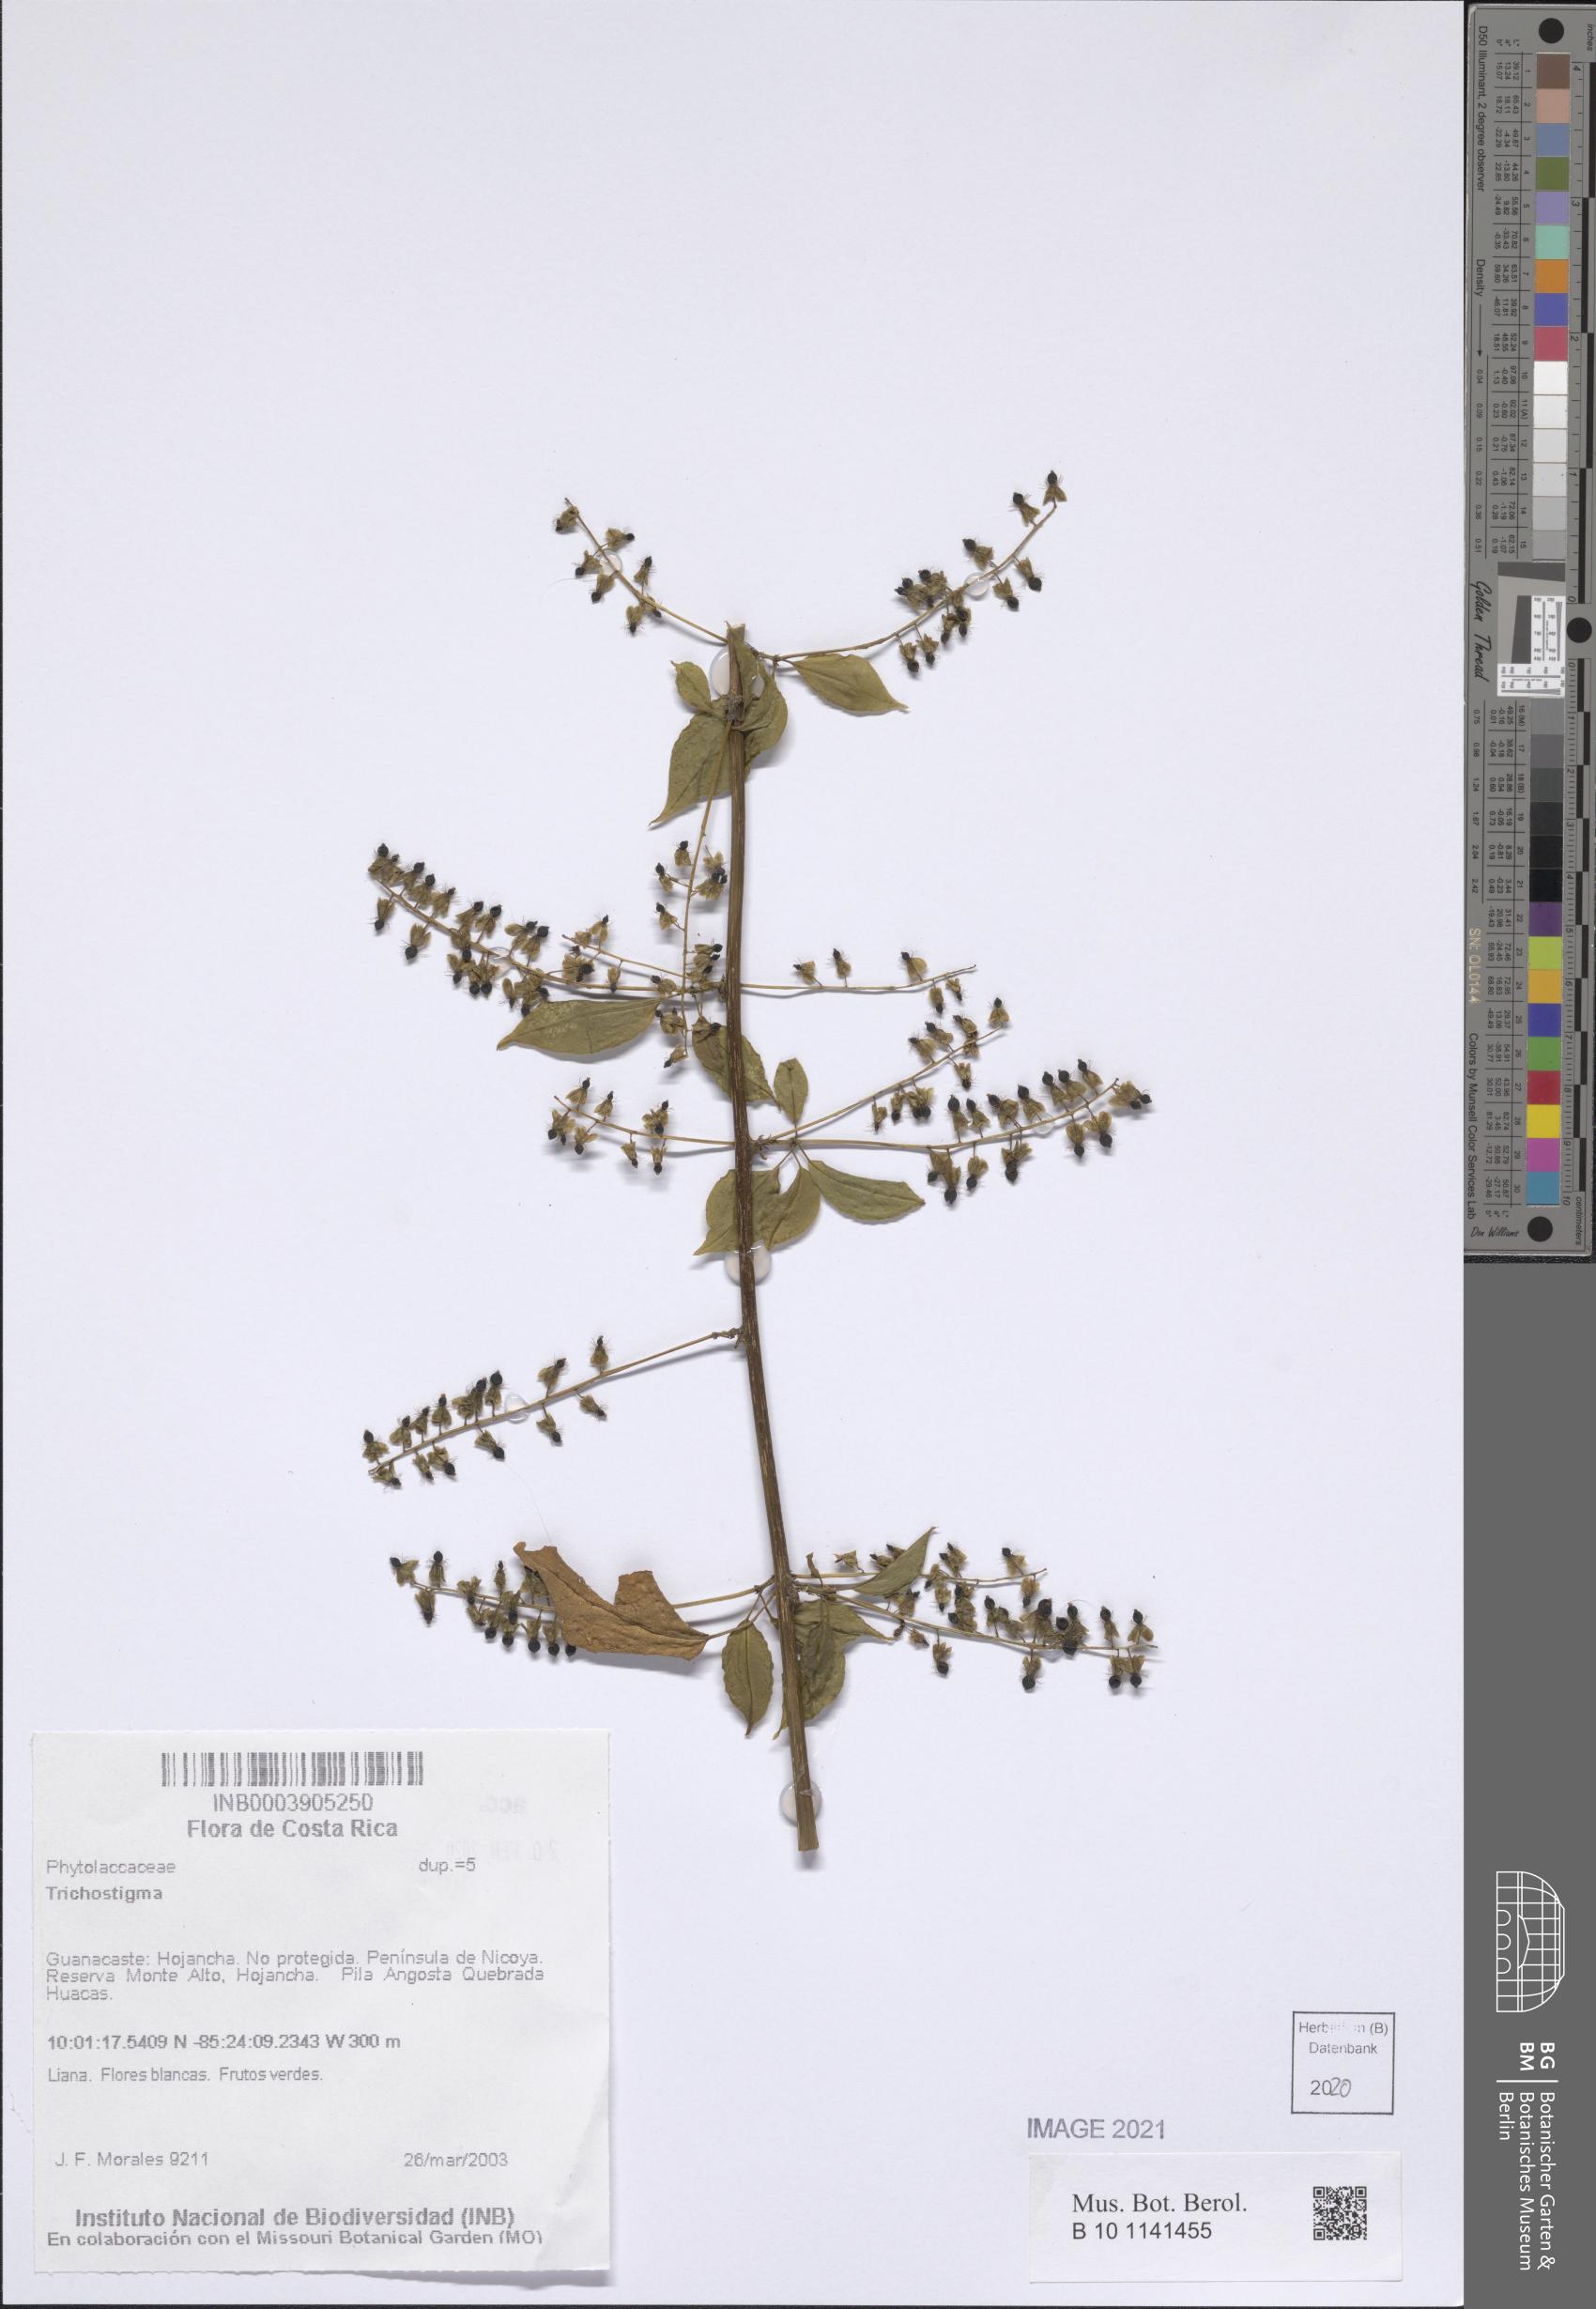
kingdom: Plantae
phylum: Tracheophyta
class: Magnoliopsida
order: Caryophyllales
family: Phytolaccaceae
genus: Trichostigma
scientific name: Trichostigma
